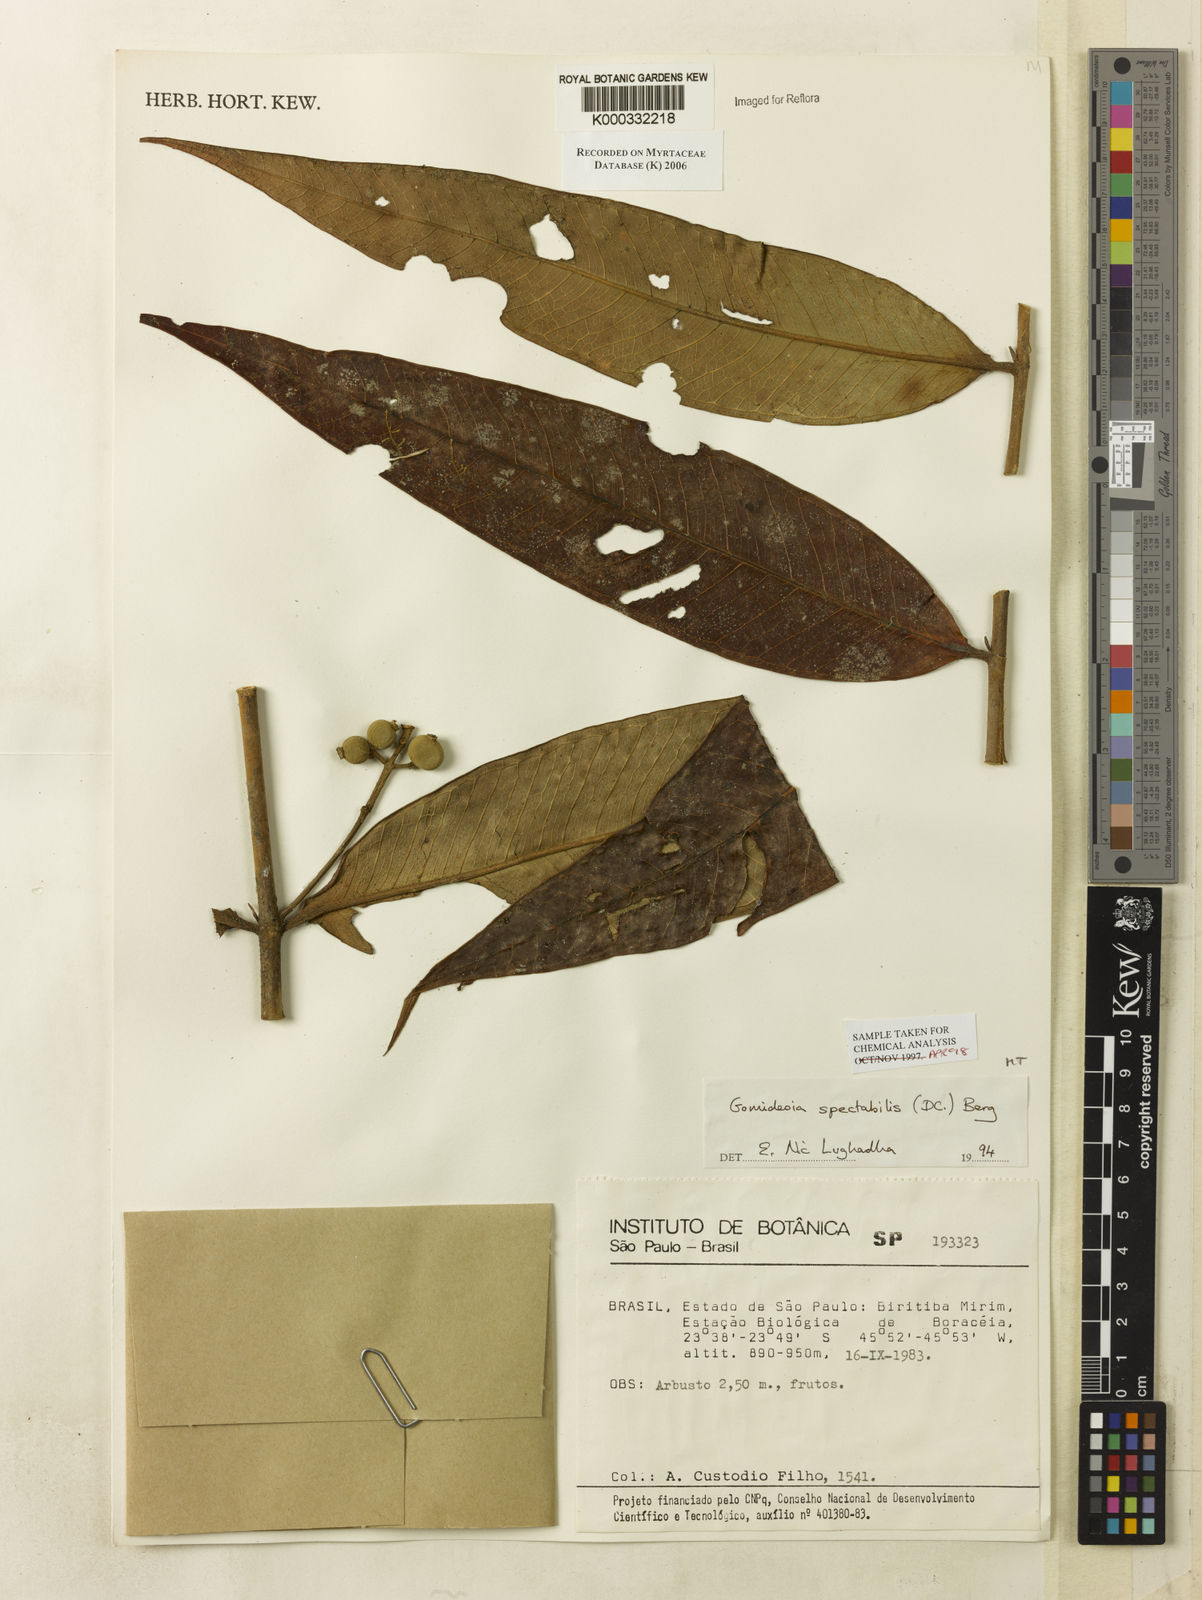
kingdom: Plantae
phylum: Tracheophyta
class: Magnoliopsida
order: Myrtales
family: Myrtaceae
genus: Myrcia
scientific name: Myrcia spectabilis
